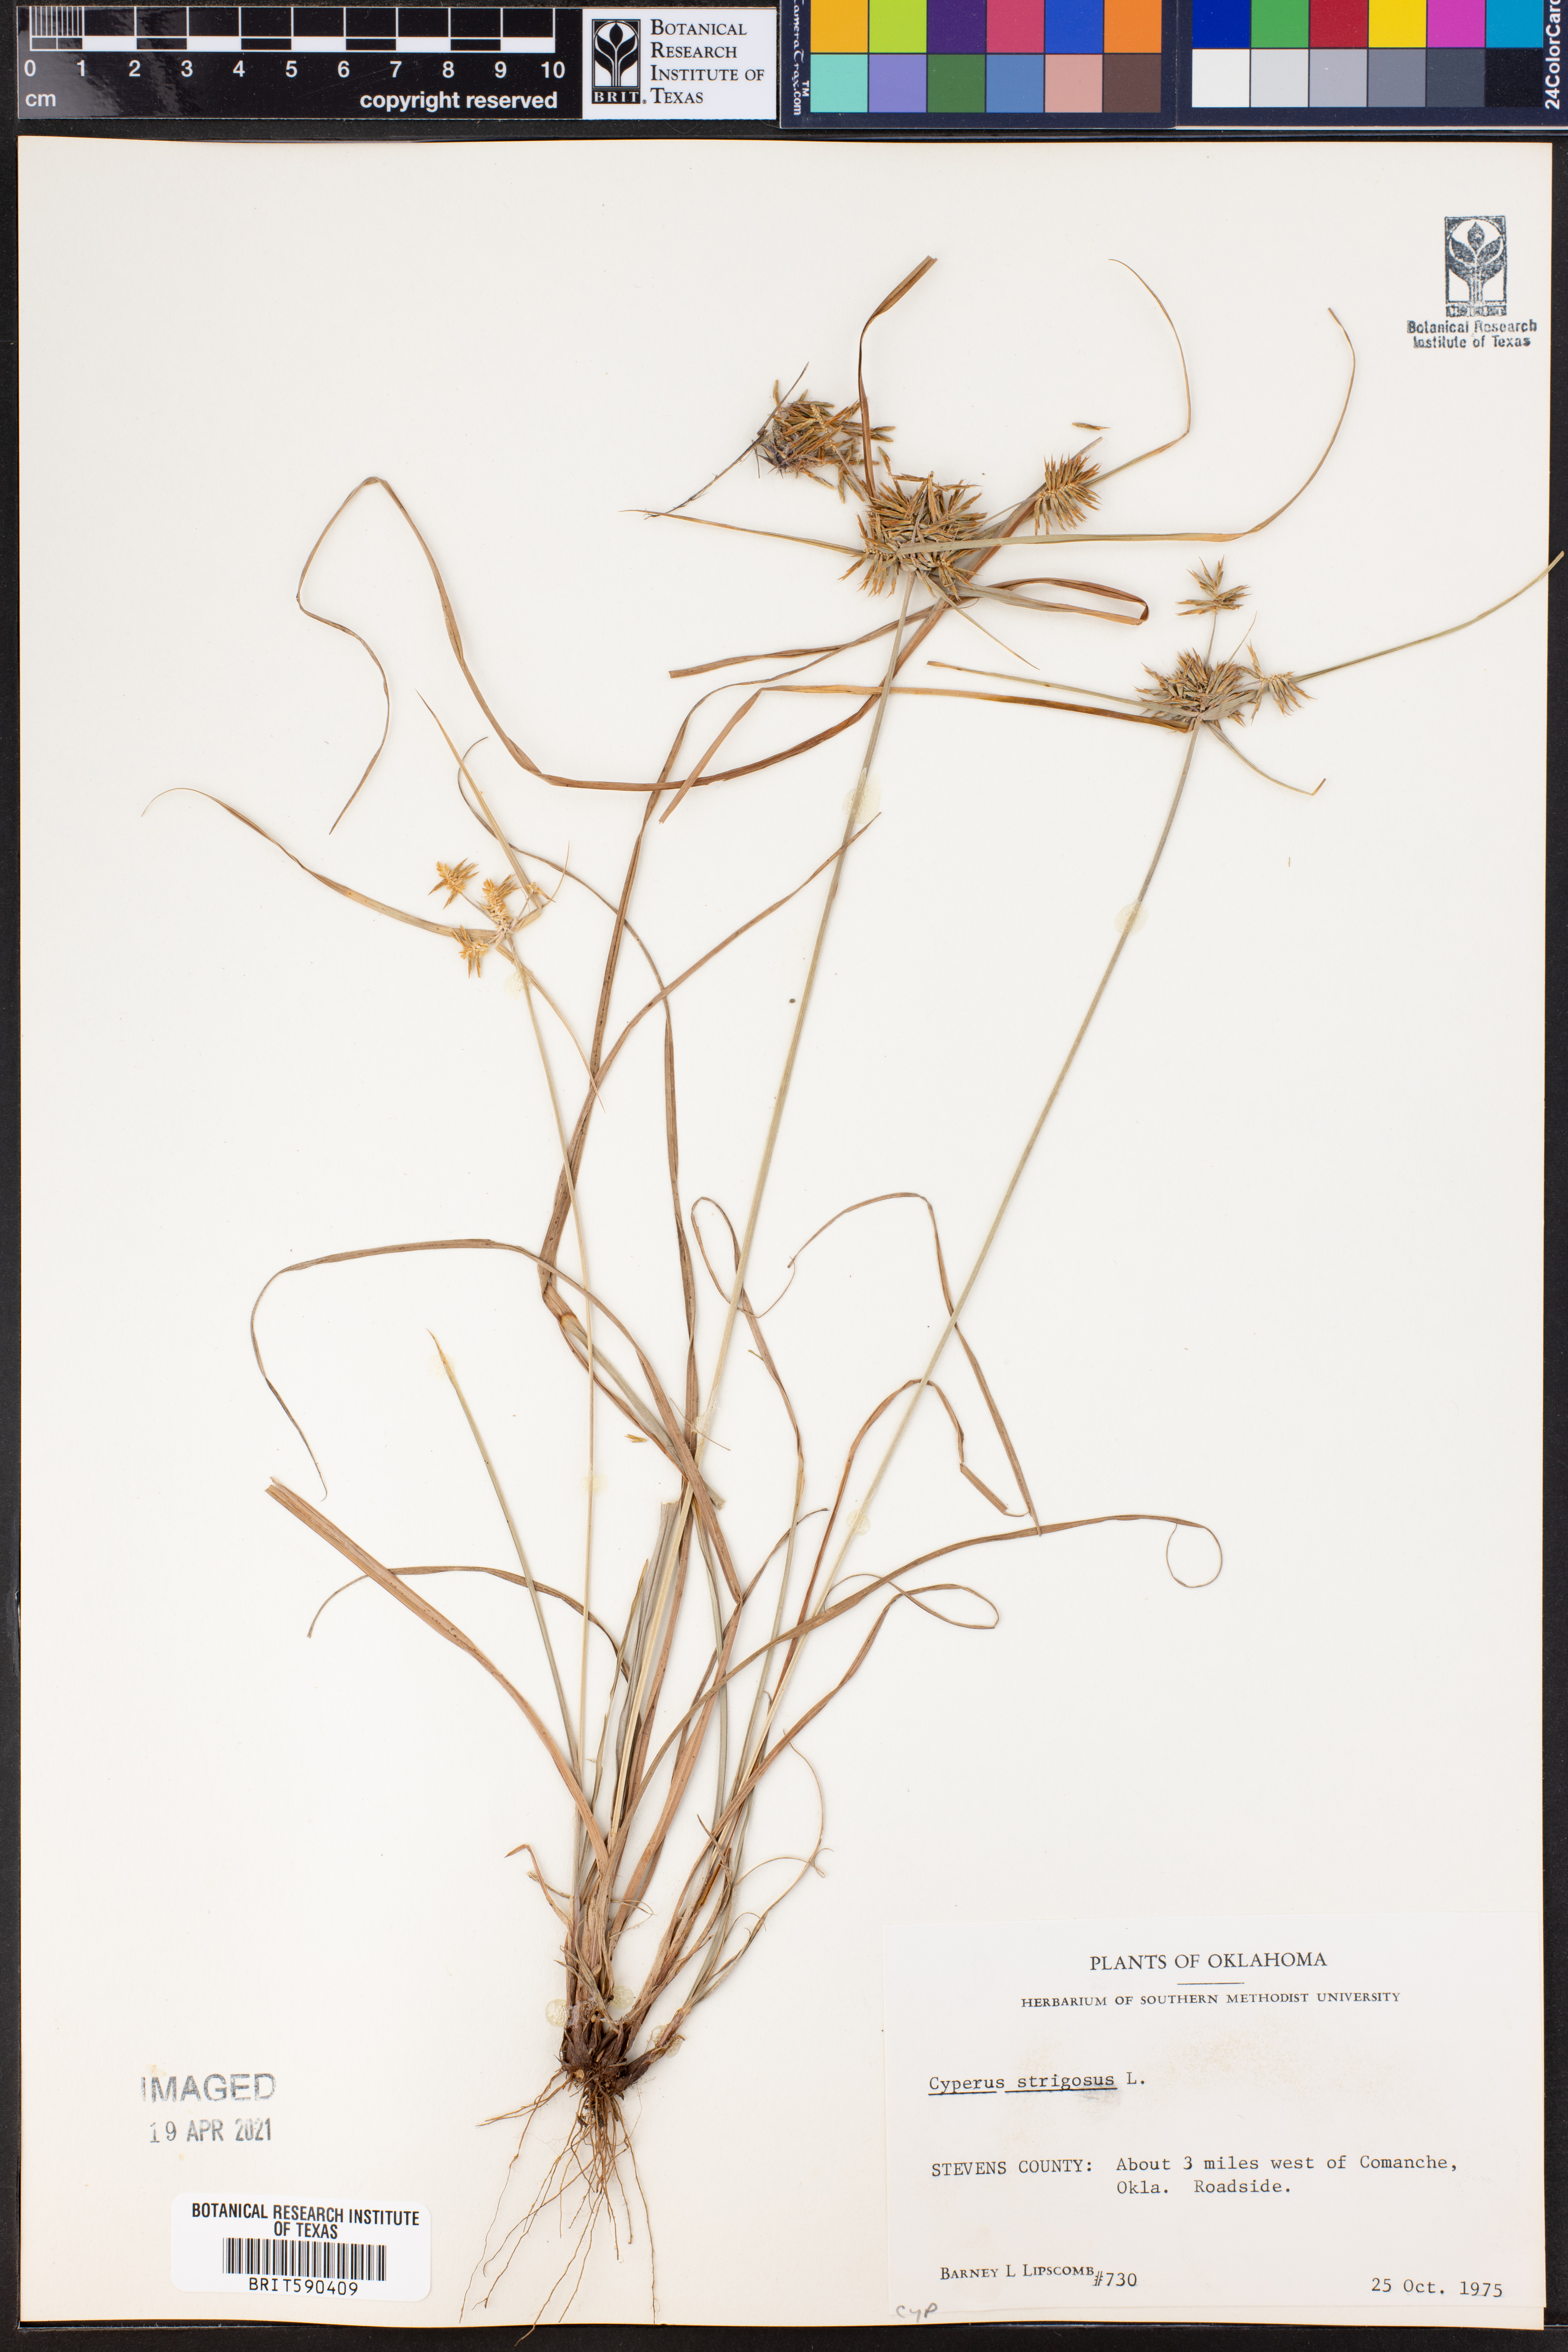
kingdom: Plantae
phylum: Tracheophyta
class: Liliopsida
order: Poales
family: Cyperaceae
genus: Cyperus
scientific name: Cyperus strigosus
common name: False nutsedge
